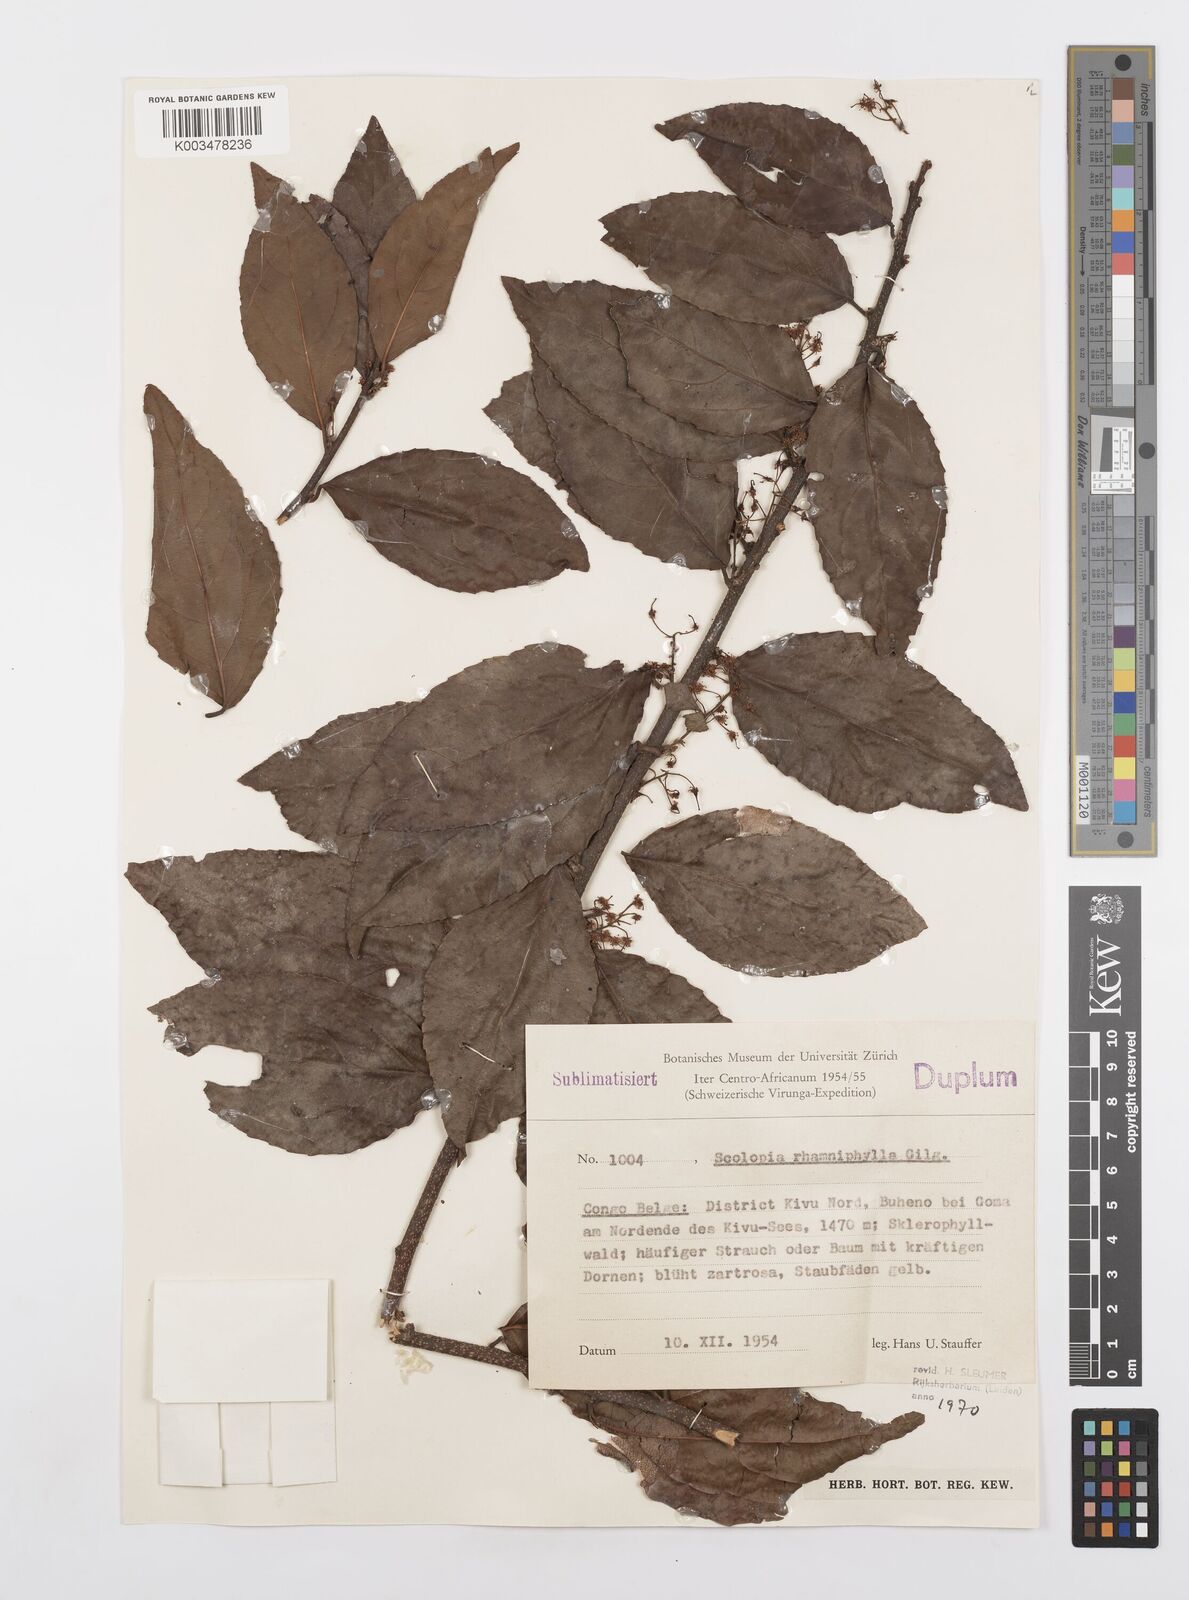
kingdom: Plantae
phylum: Tracheophyta
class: Magnoliopsida
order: Malpighiales
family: Salicaceae
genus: Scolopia
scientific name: Scolopia rhamniphylla
